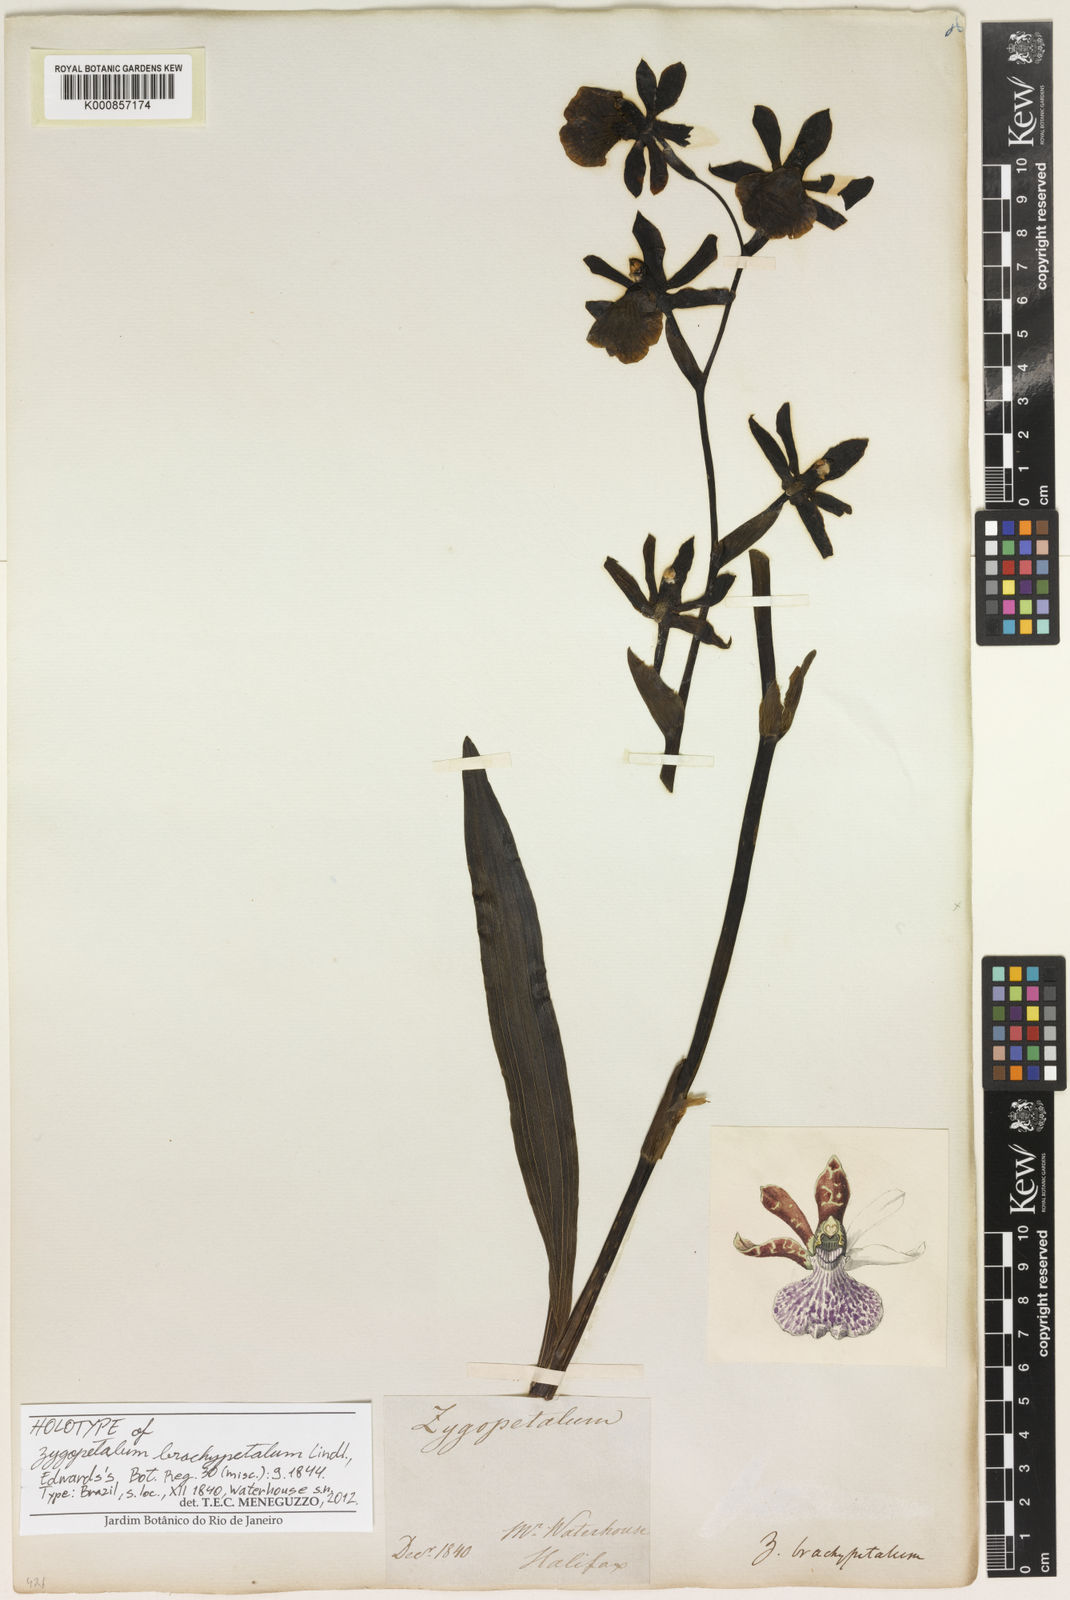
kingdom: Plantae
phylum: Tracheophyta
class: Liliopsida
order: Asparagales
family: Orchidaceae
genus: Zygopetalum
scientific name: Zygopetalum brachypetalum
